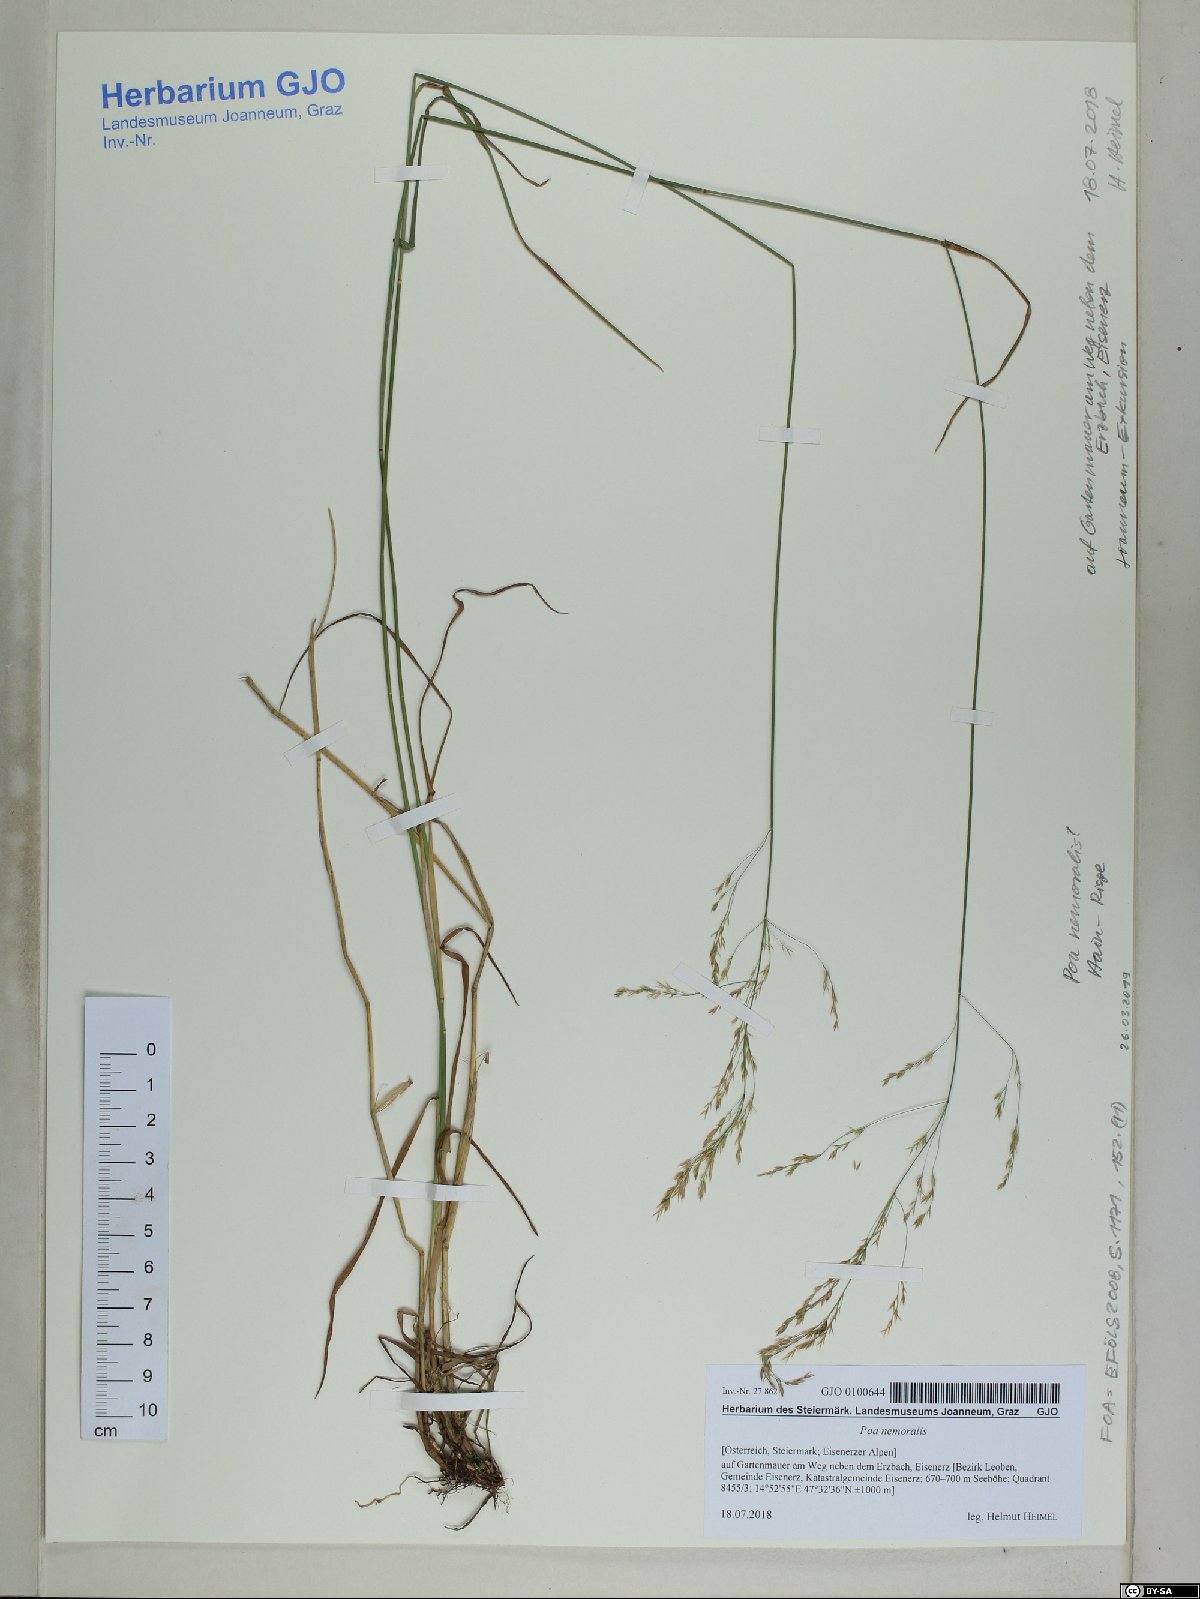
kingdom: Plantae
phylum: Tracheophyta
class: Liliopsida
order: Poales
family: Poaceae
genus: Poa
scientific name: Poa nemoralis
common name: Wood bluegrass
